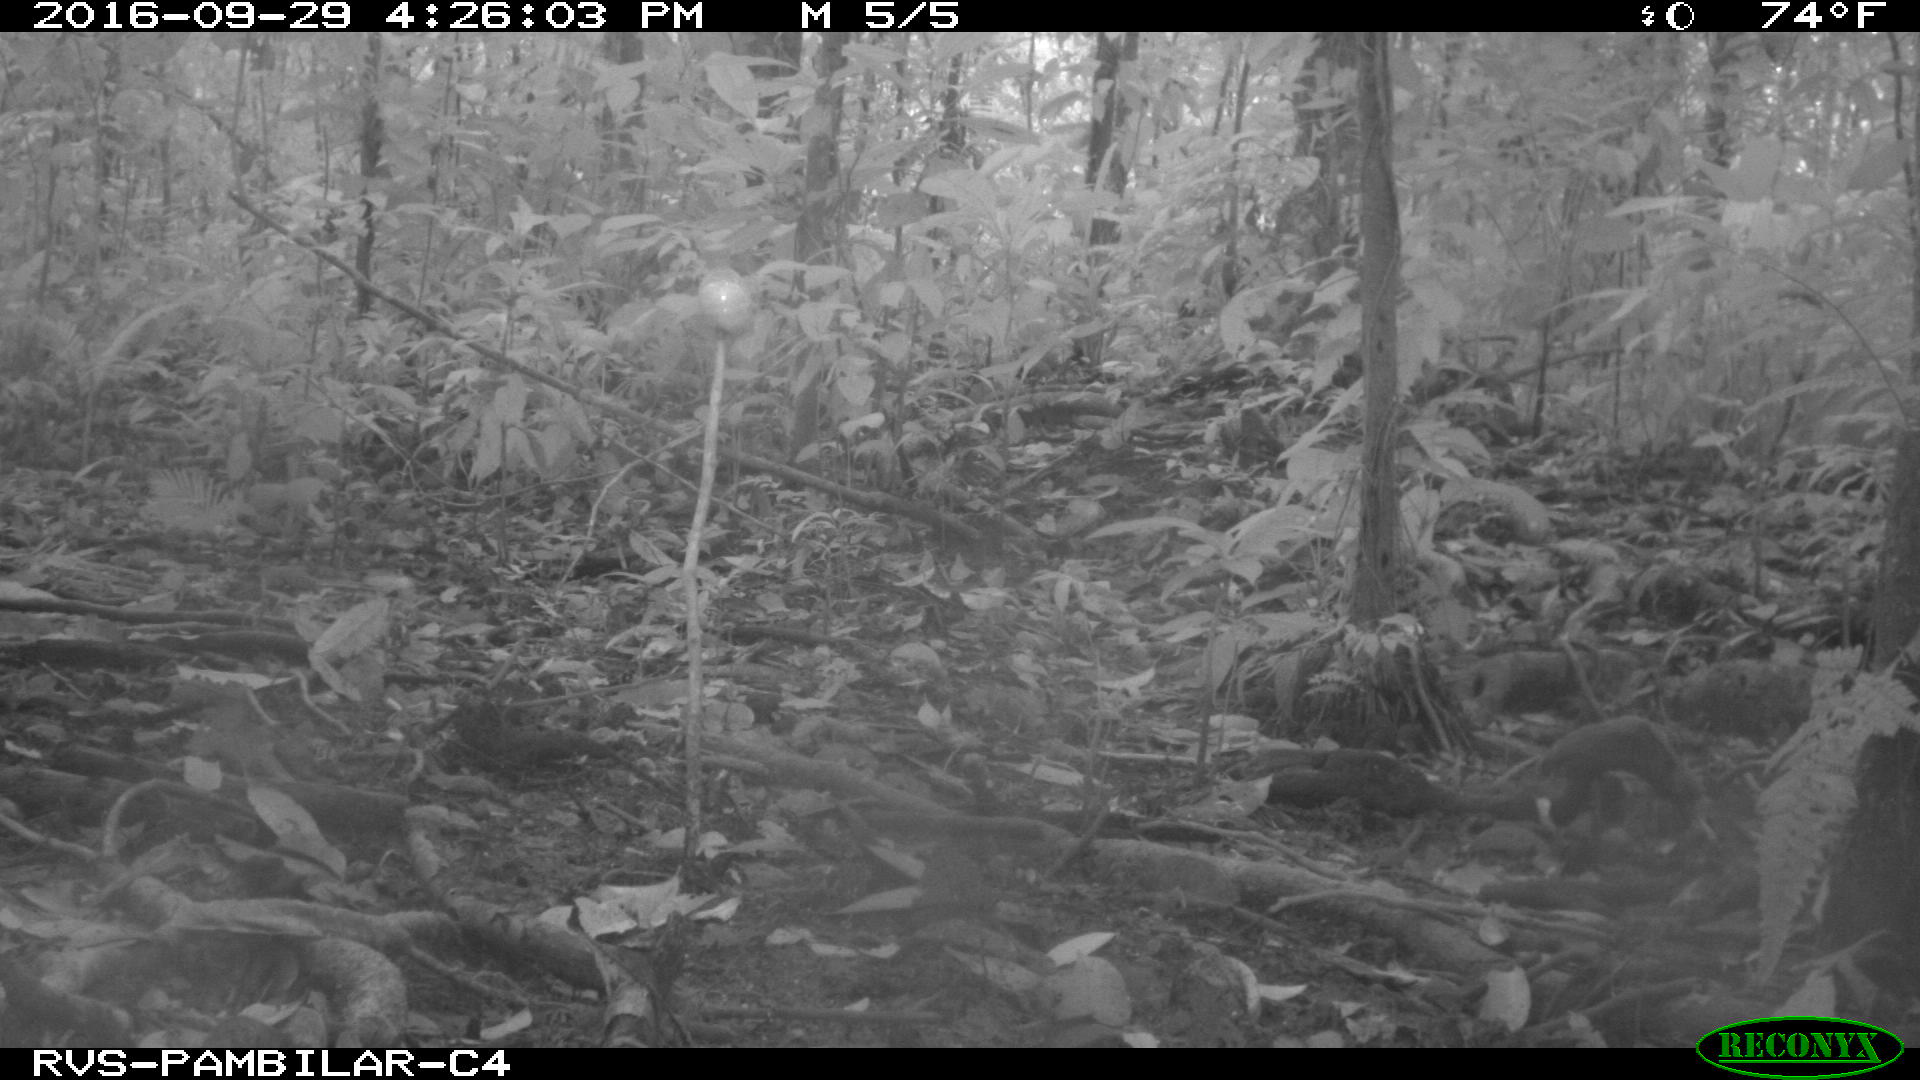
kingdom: Animalia
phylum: Chordata
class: Mammalia
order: Rodentia
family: Dasyproctidae
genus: Dasyprocta
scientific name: Dasyprocta punctata
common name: Central american agouti
